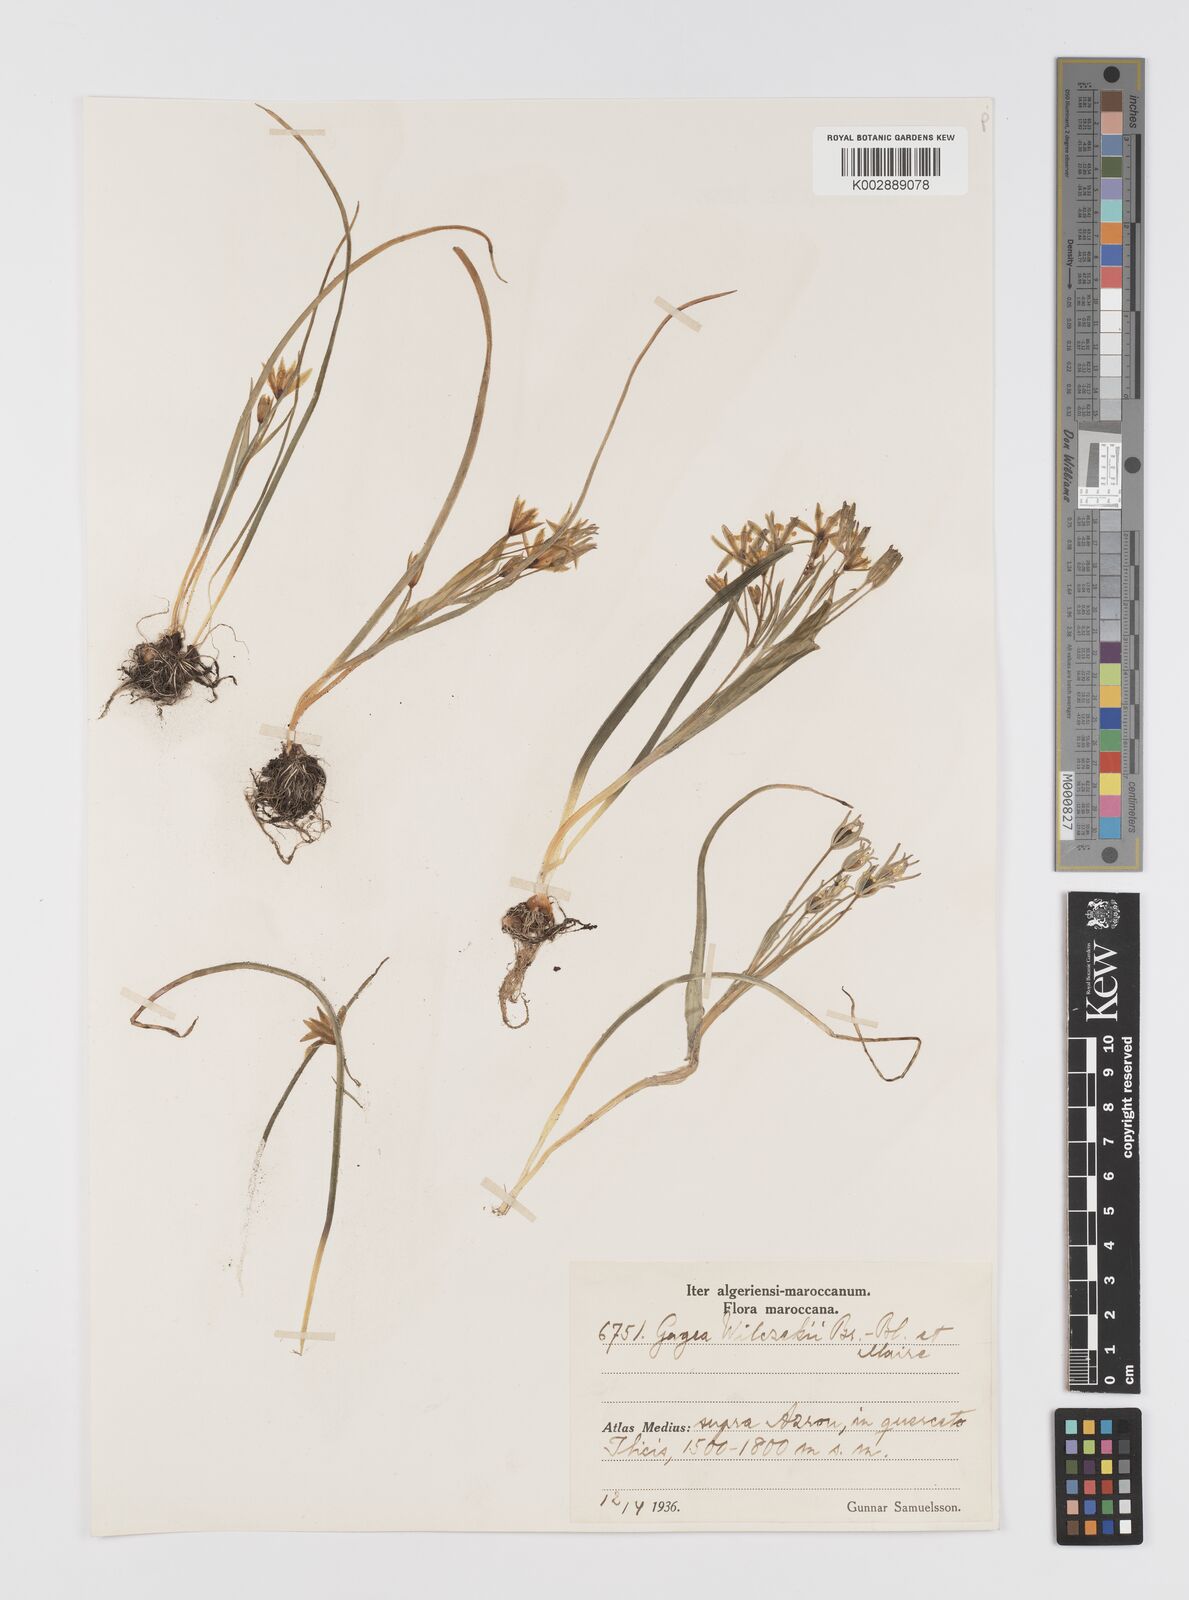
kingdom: Plantae
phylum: Tracheophyta
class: Liliopsida
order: Liliales
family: Liliaceae
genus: Gagea
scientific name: Gagea algeriensis
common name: Algerian gagea
